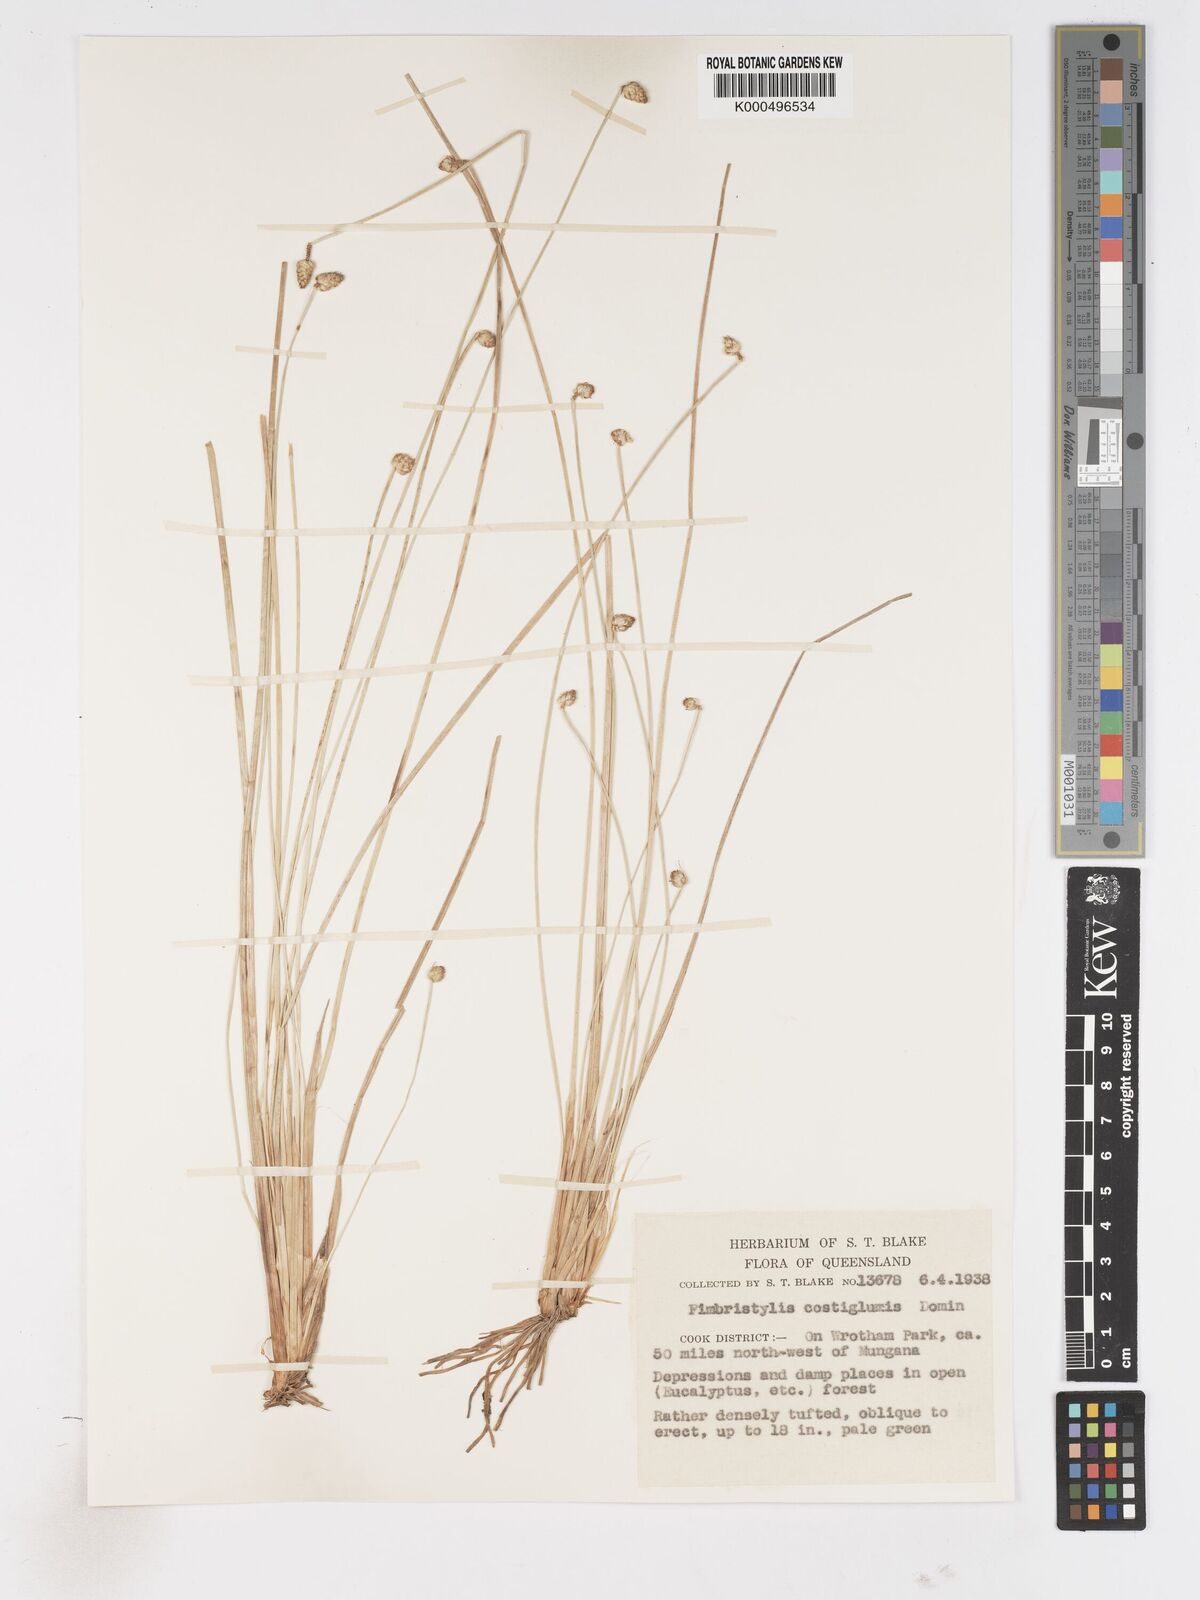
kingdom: Plantae
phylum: Tracheophyta
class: Liliopsida
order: Poales
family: Cyperaceae
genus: Fimbristylis
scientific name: Fimbristylis costiglumis
